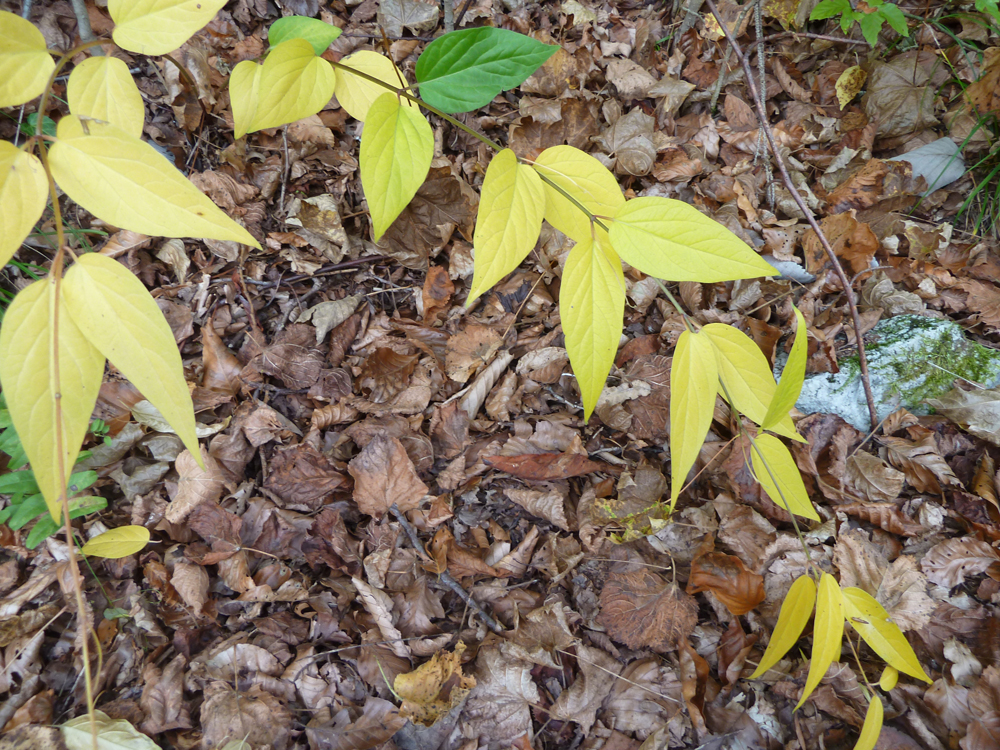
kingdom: Plantae
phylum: Tracheophyta
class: Magnoliopsida
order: Gentianales
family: Apocynaceae
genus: Vincetoxicum
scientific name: Vincetoxicum hirundinaria
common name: White swallowwort
